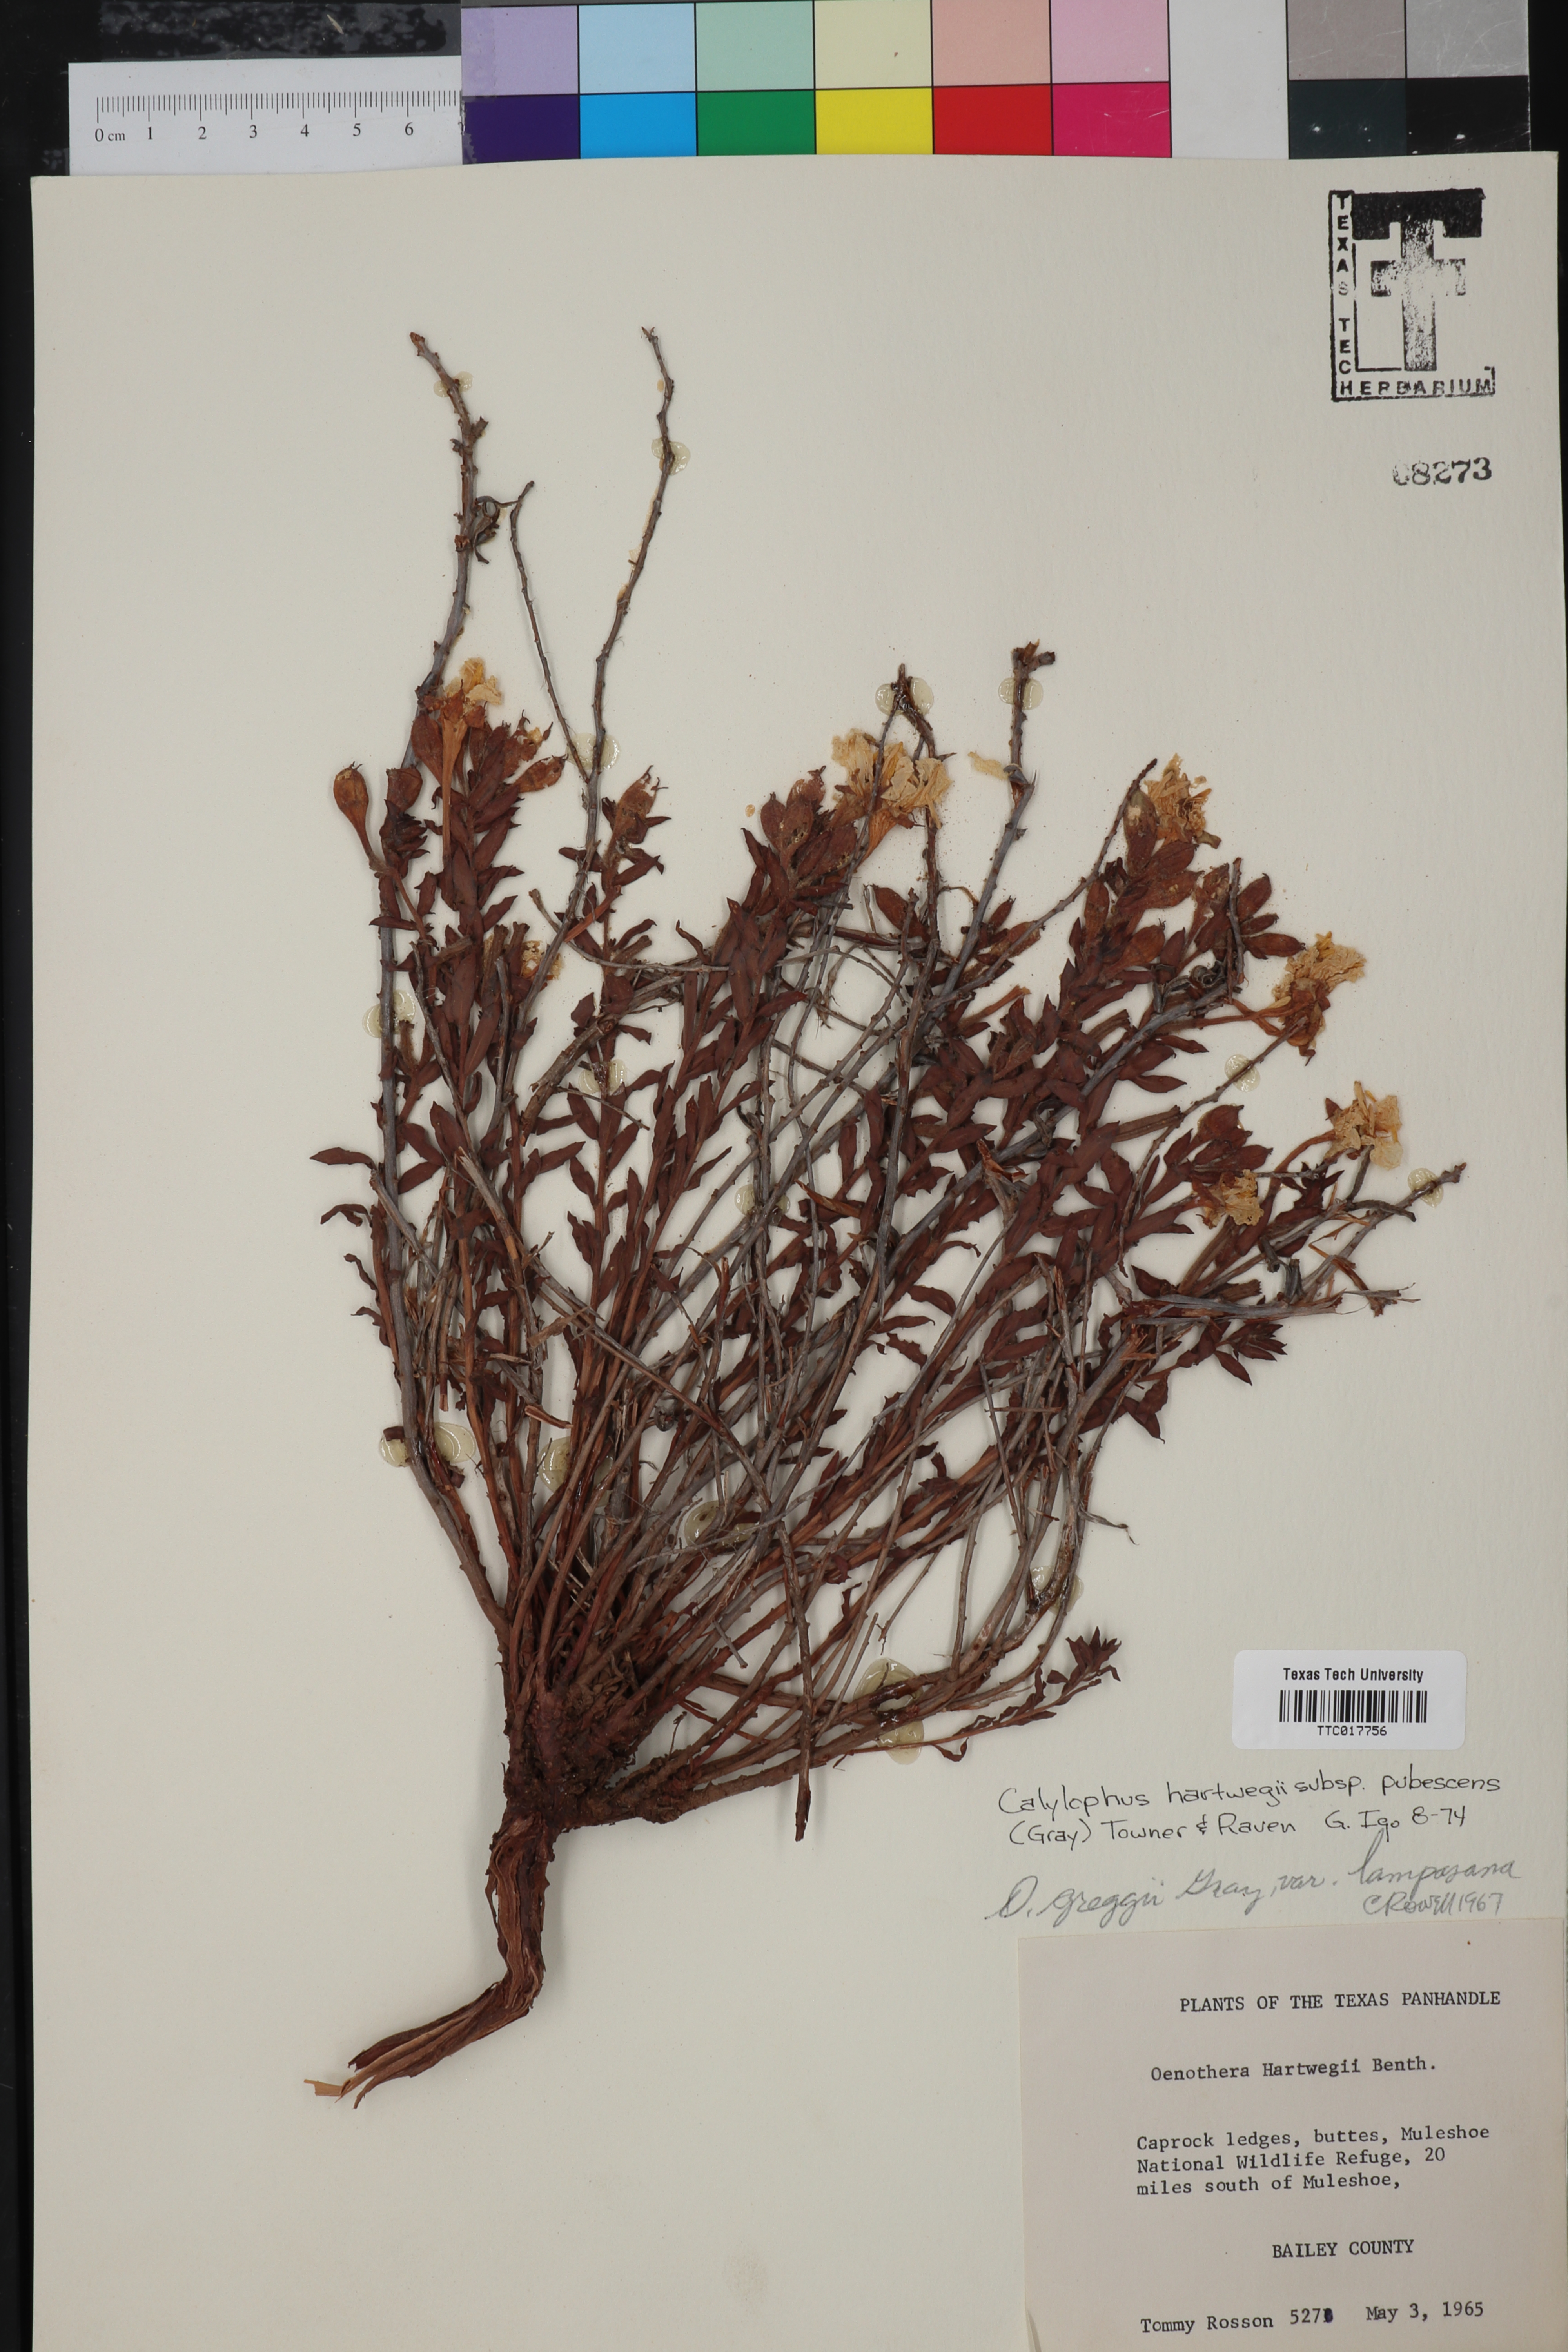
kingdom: Plantae
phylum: Tracheophyta
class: Magnoliopsida
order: Myrtales
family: Onagraceae
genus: Oenothera
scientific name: Oenothera hartwegii
